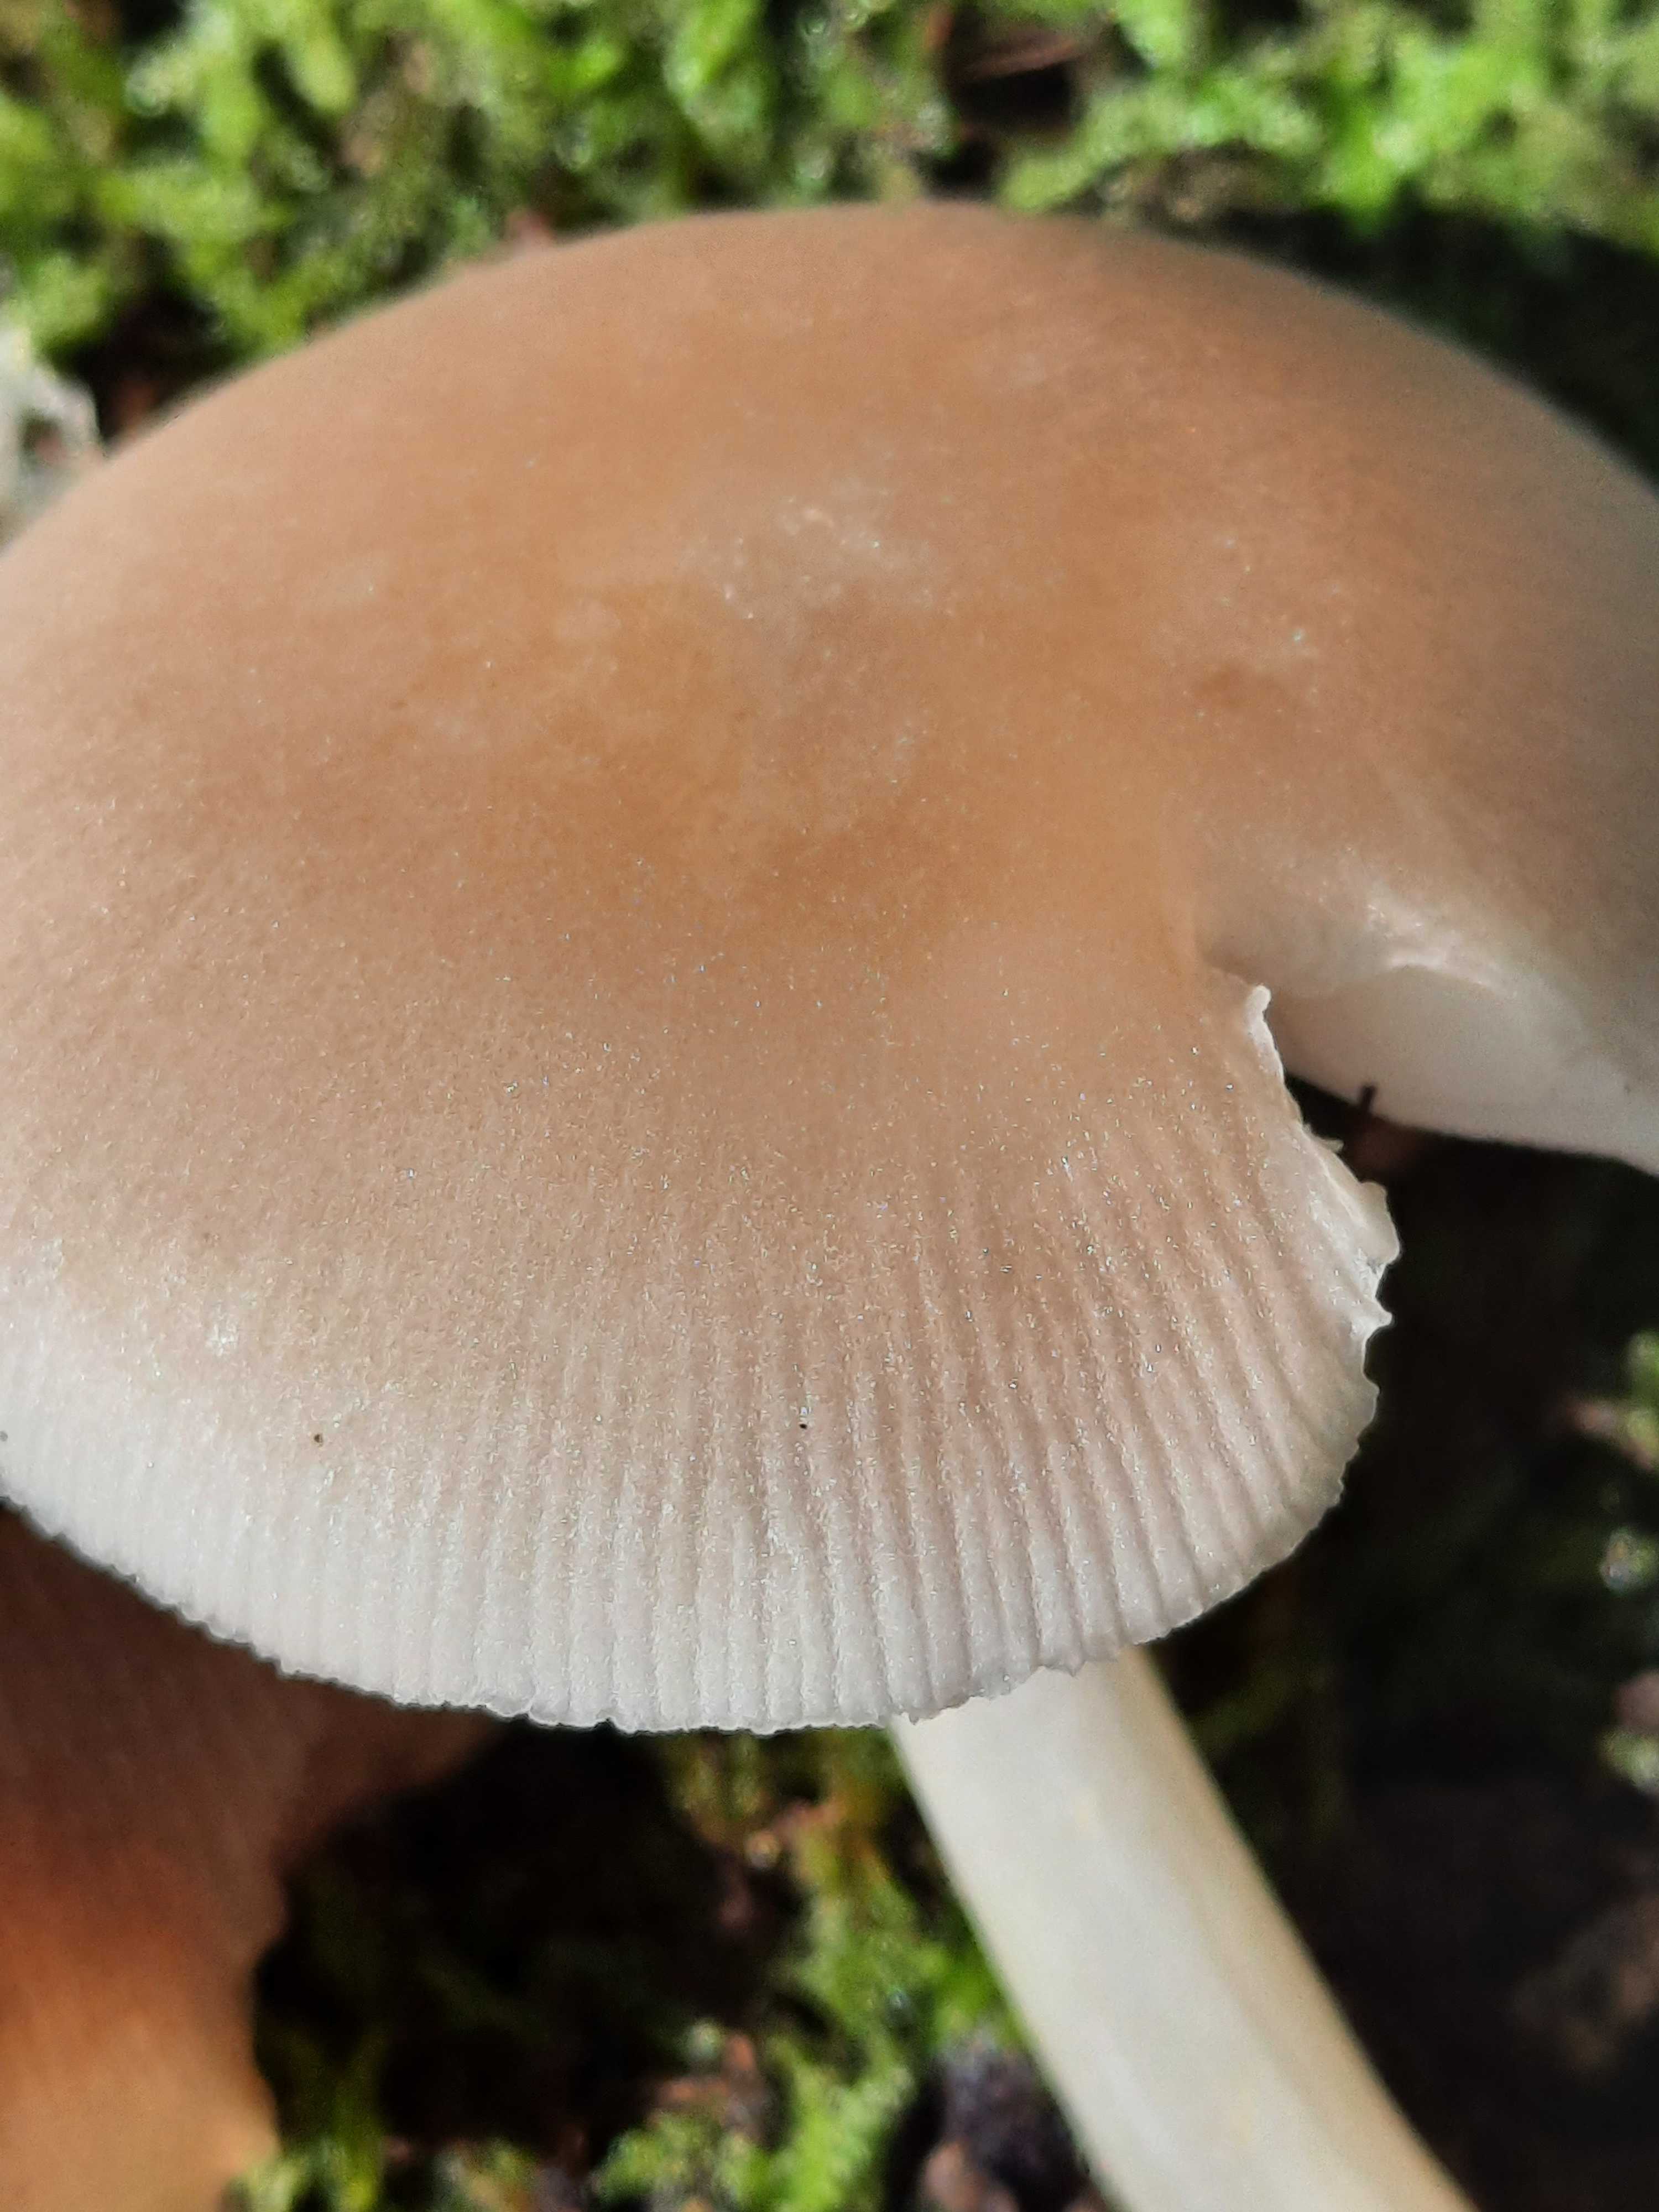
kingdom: Fungi
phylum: Basidiomycota
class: Agaricomycetes
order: Agaricales
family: Pluteaceae
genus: Pluteus
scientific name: Pluteus semibulbosus
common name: knoldet skærmhat
